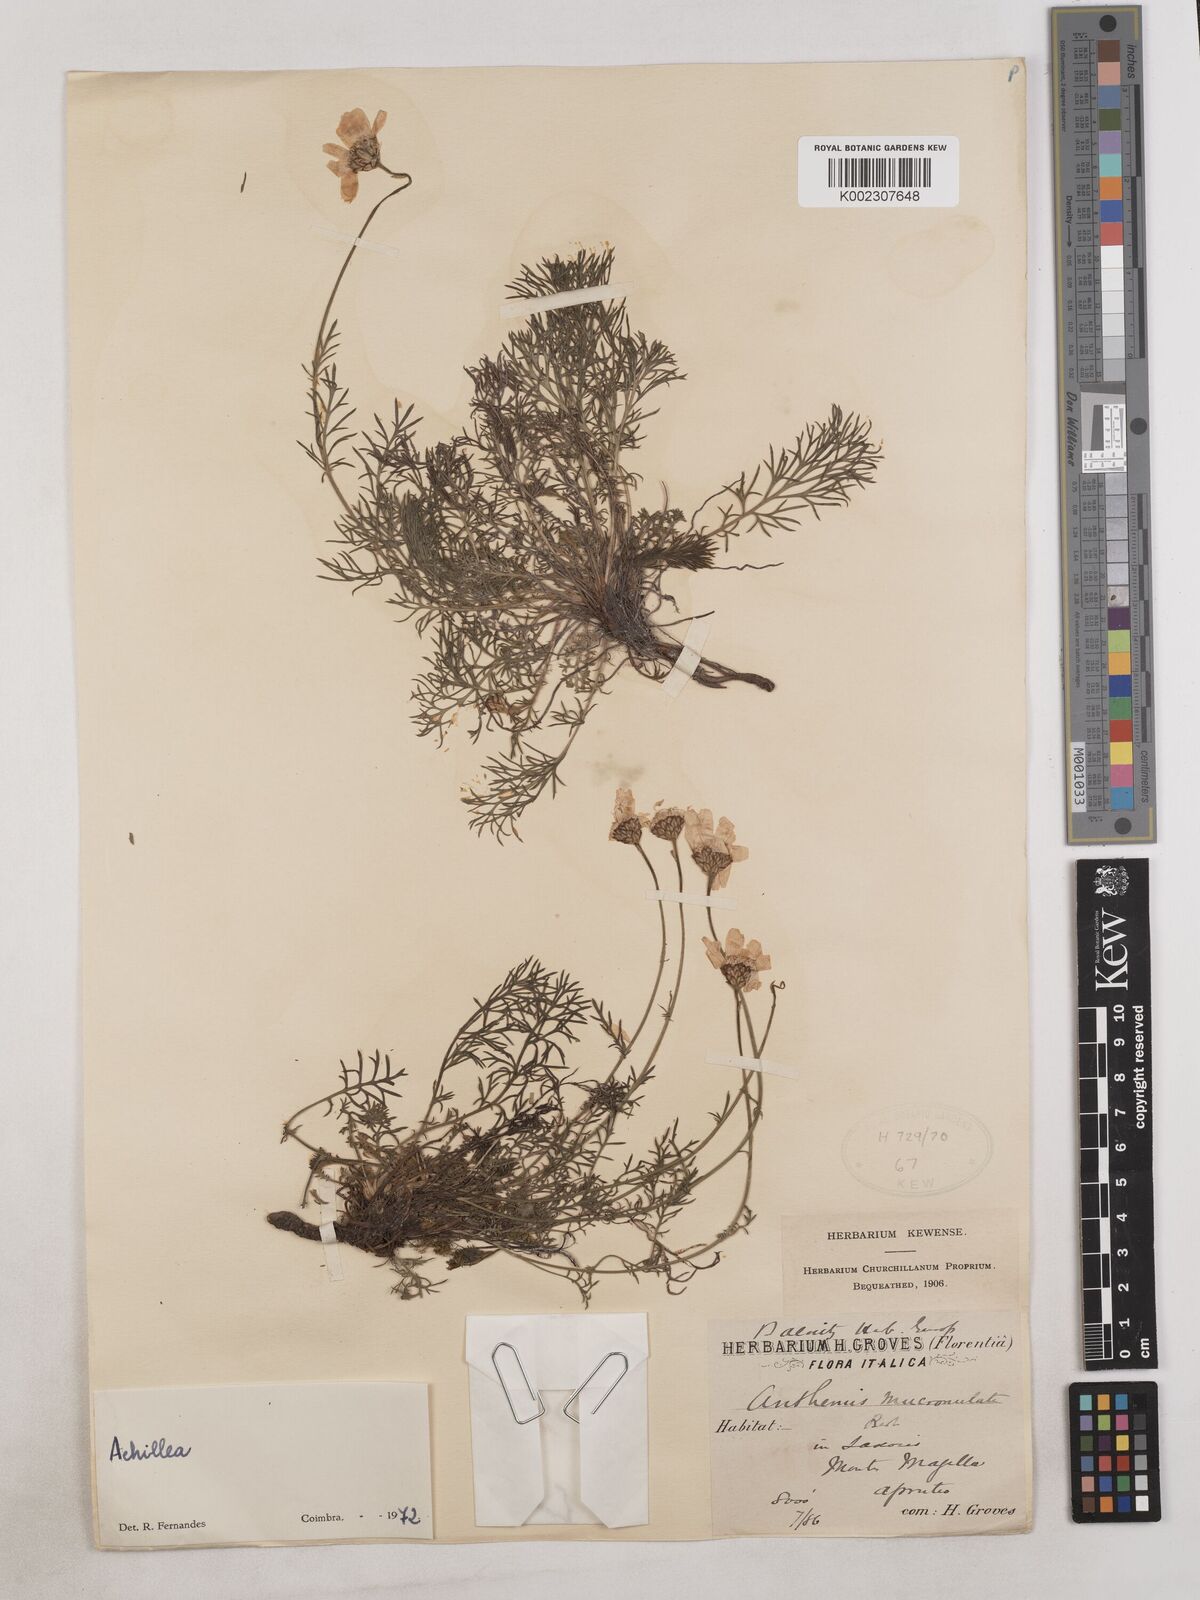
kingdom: Plantae
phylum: Tracheophyta
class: Magnoliopsida
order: Asterales
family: Asteraceae
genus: Achillea
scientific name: Achillea
